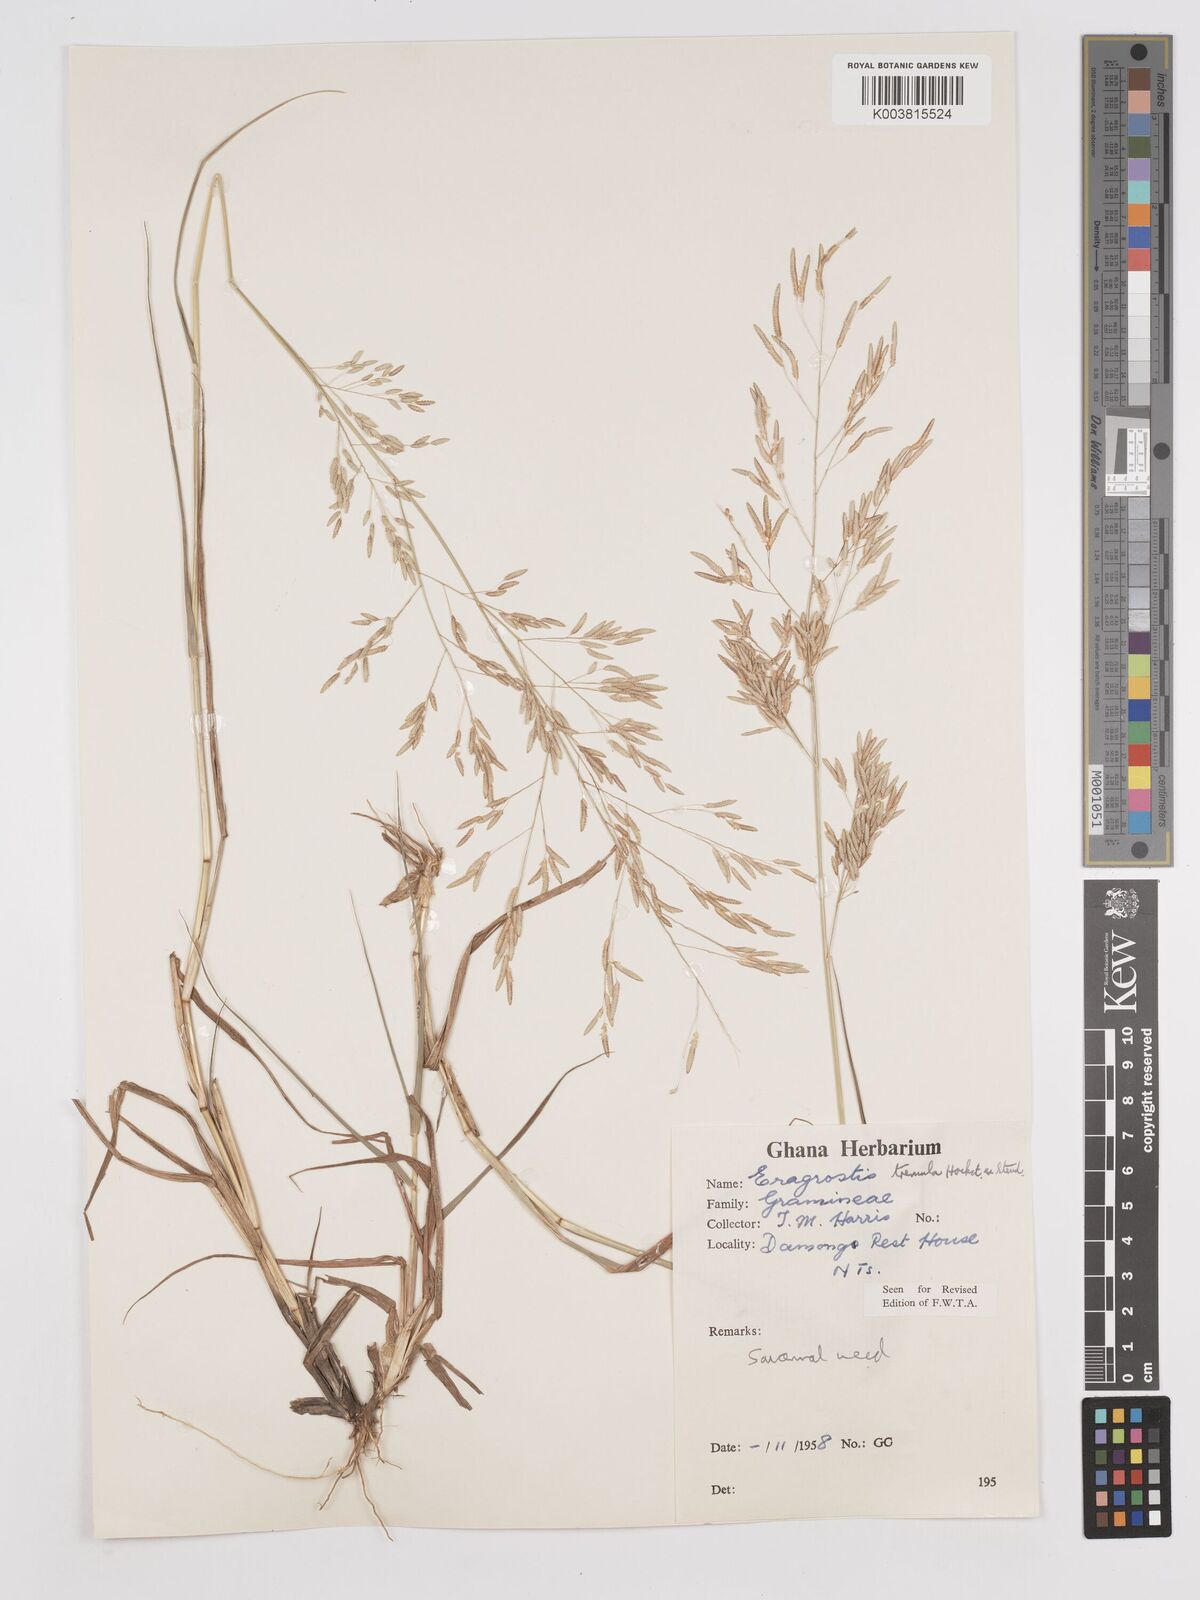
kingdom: Plantae
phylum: Tracheophyta
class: Liliopsida
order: Poales
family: Poaceae
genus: Eragrostis
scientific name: Eragrostis tremula
